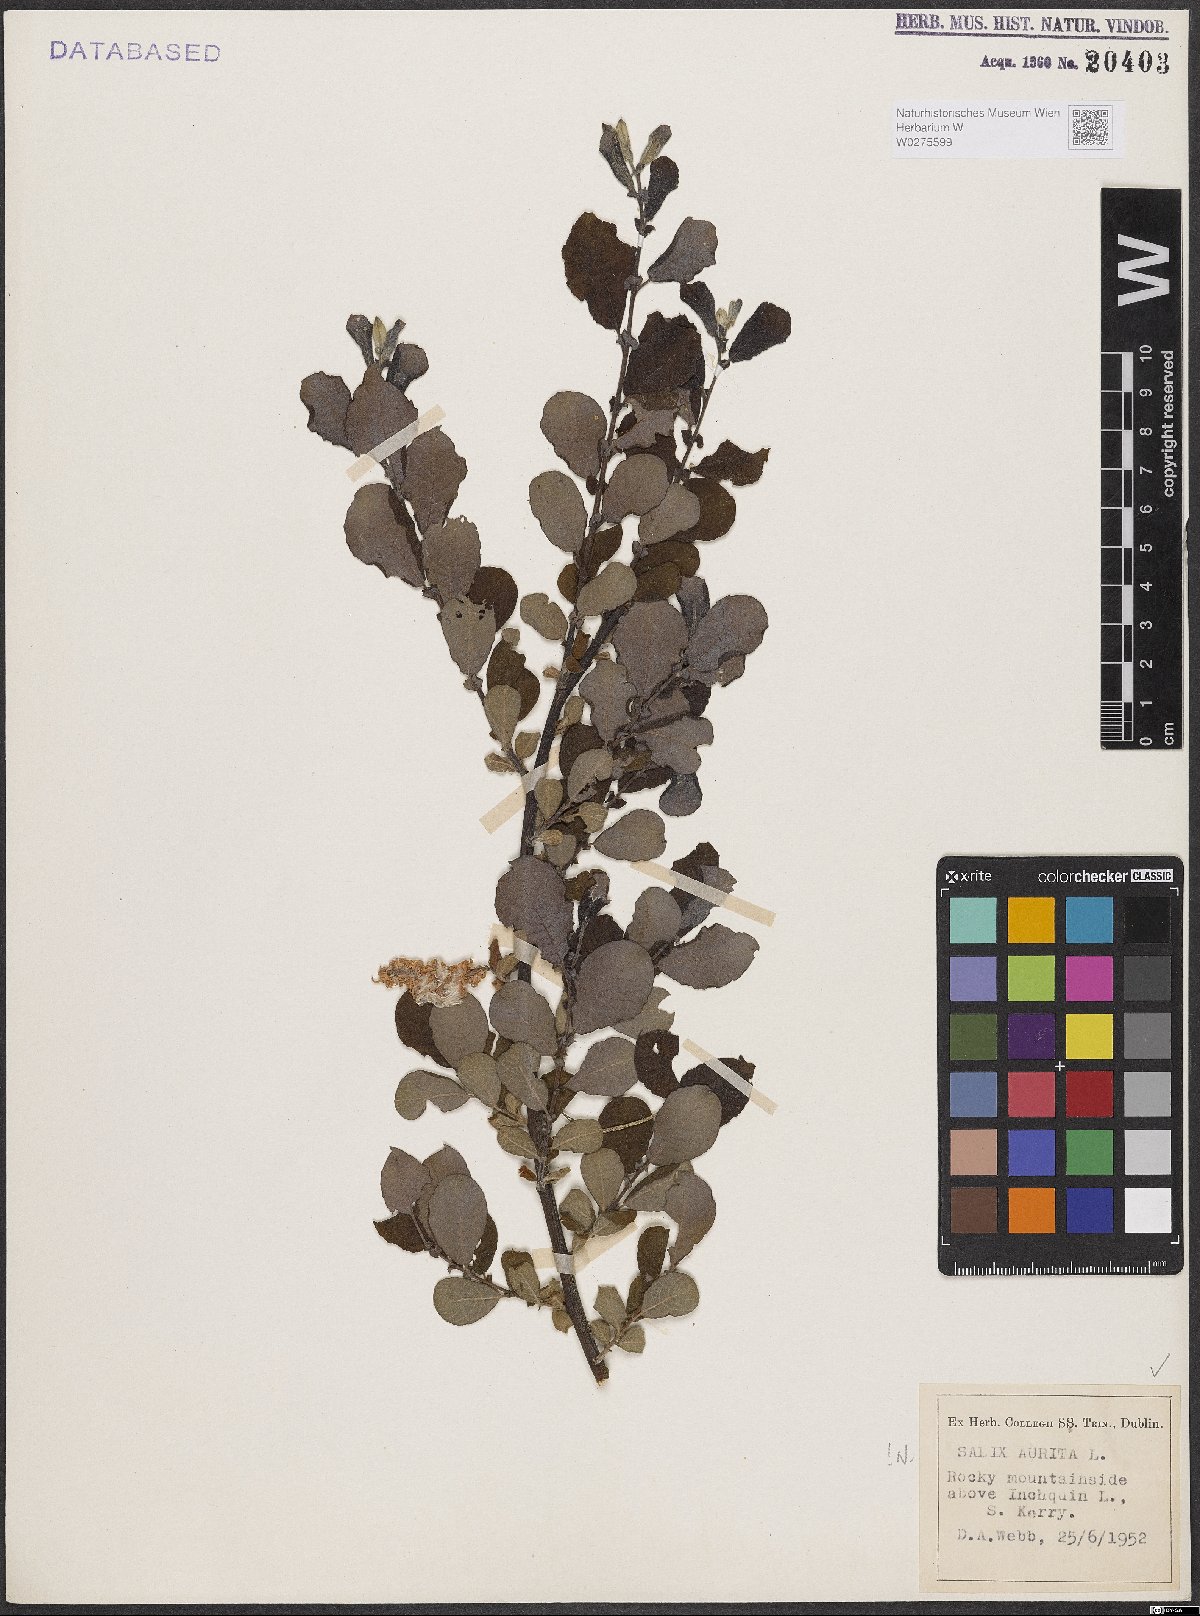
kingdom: Plantae
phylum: Tracheophyta
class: Magnoliopsida
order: Malpighiales
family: Salicaceae
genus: Salix
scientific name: Salix aurita
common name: Eared willow
